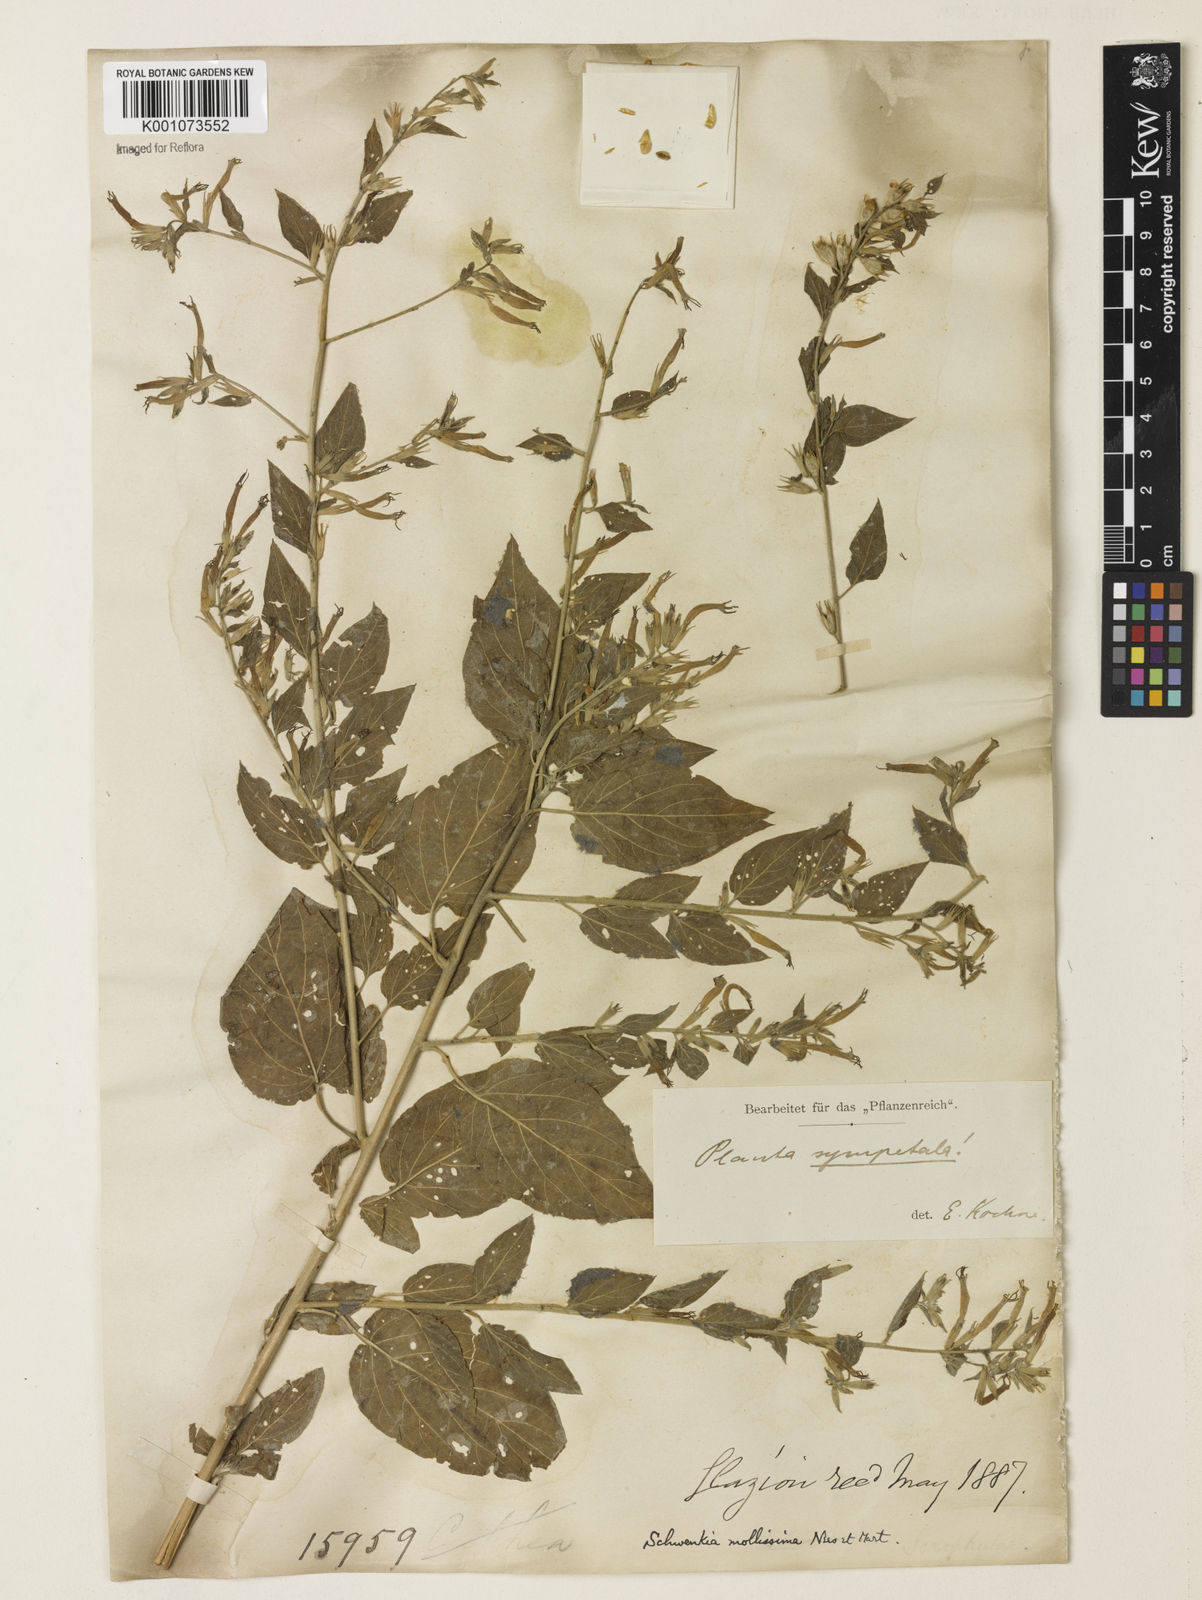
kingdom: Plantae
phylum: Tracheophyta
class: Magnoliopsida
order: Solanales
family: Solanaceae
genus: Schwenckia
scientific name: Schwenckia mollissima
